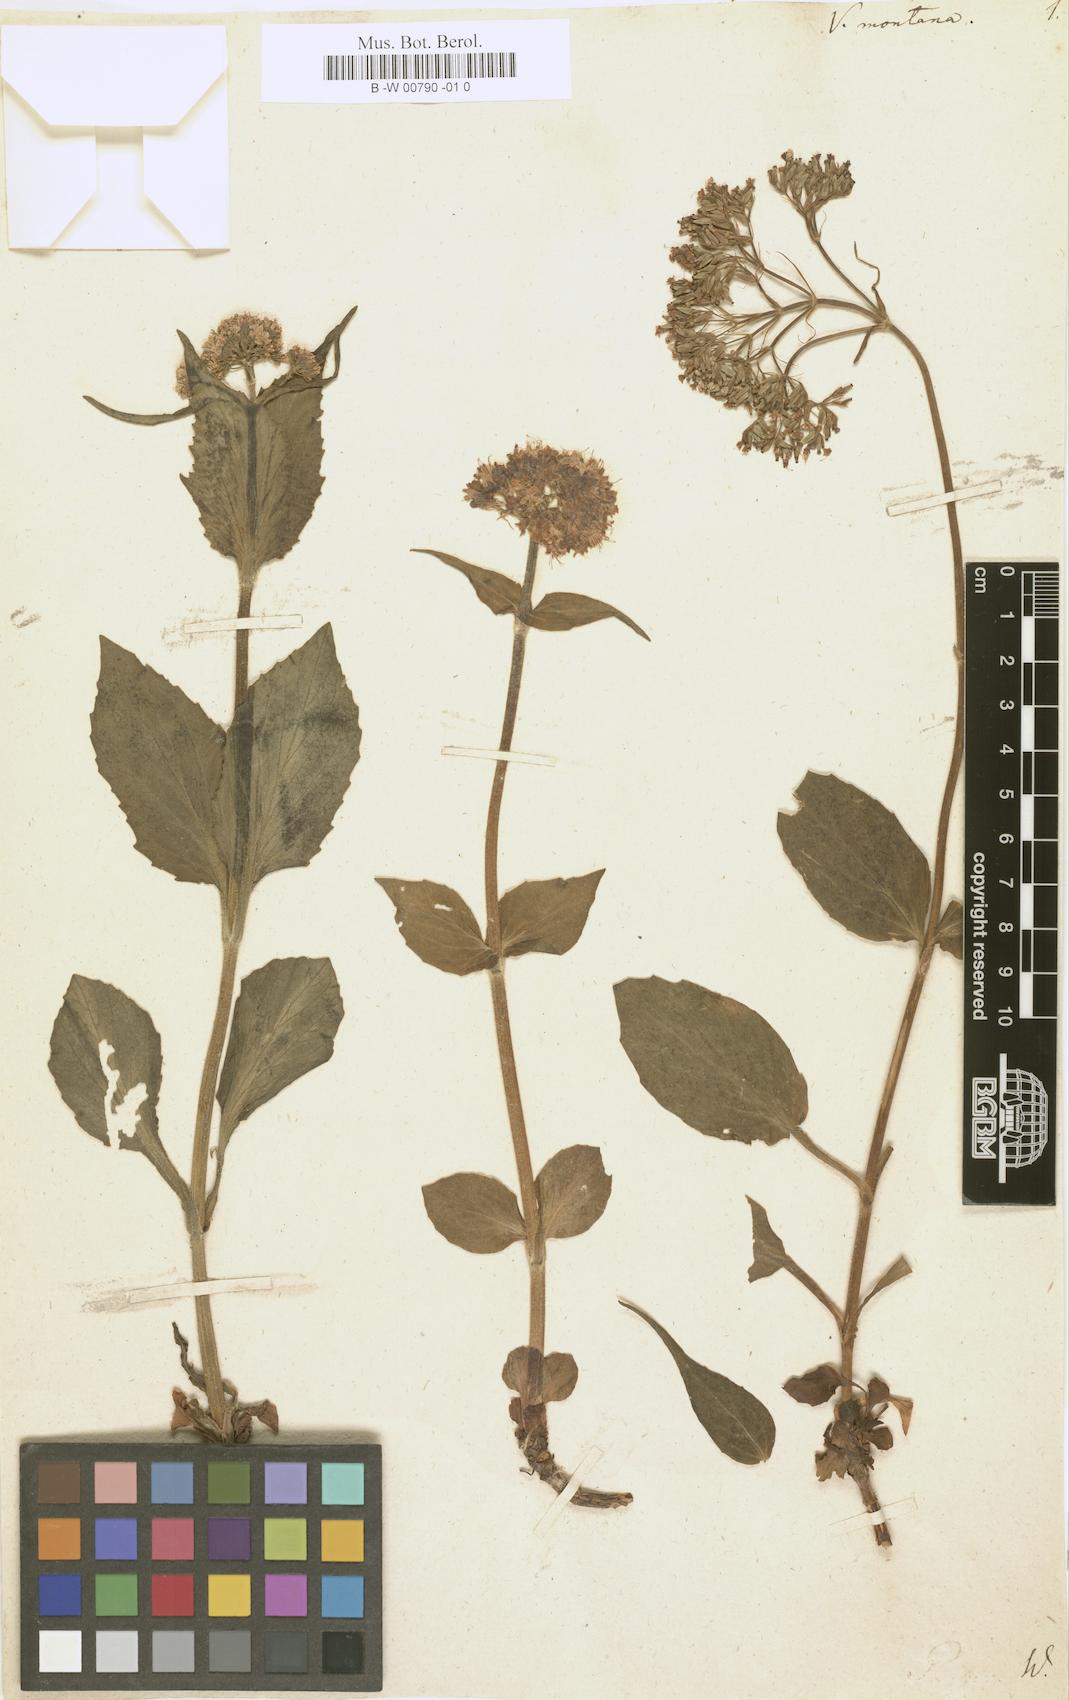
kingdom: Plantae
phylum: Tracheophyta
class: Magnoliopsida
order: Dipsacales
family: Caprifoliaceae
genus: Valeriana
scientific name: Valeriana montana
